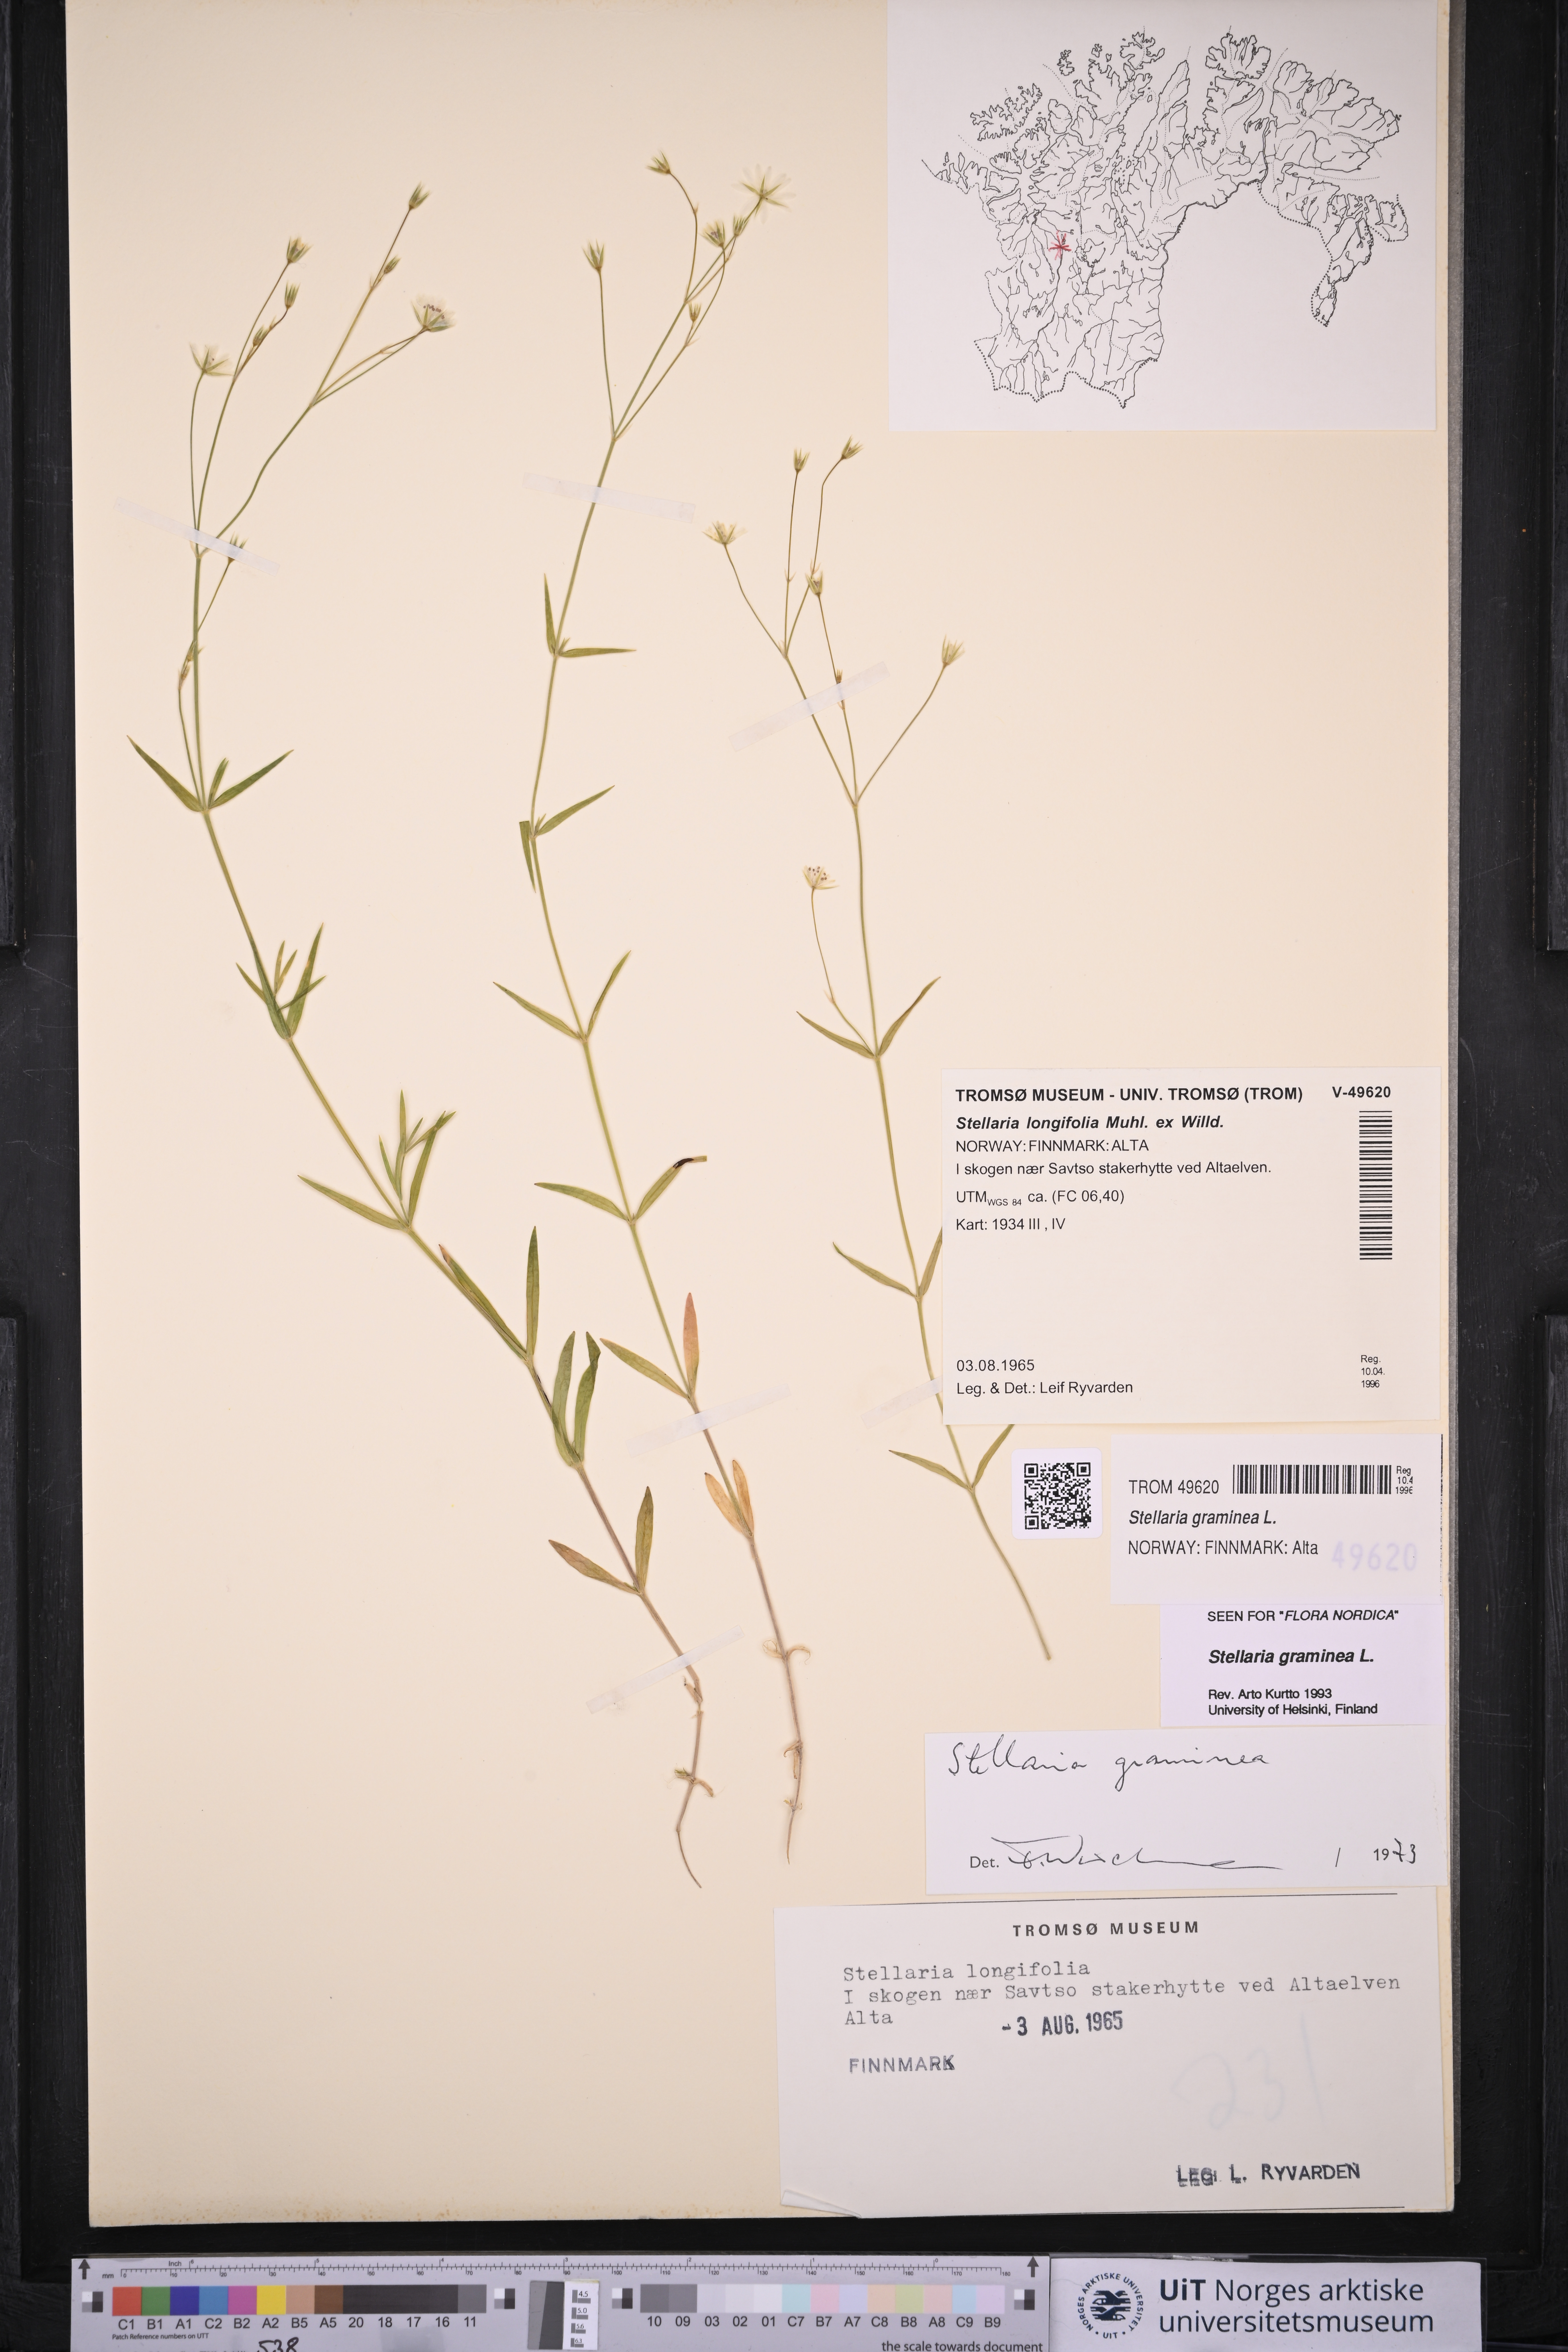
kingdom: Plantae
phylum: Tracheophyta
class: Magnoliopsida
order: Caryophyllales
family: Caryophyllaceae
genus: Stellaria
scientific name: Stellaria graminea
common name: Grass-like starwort
